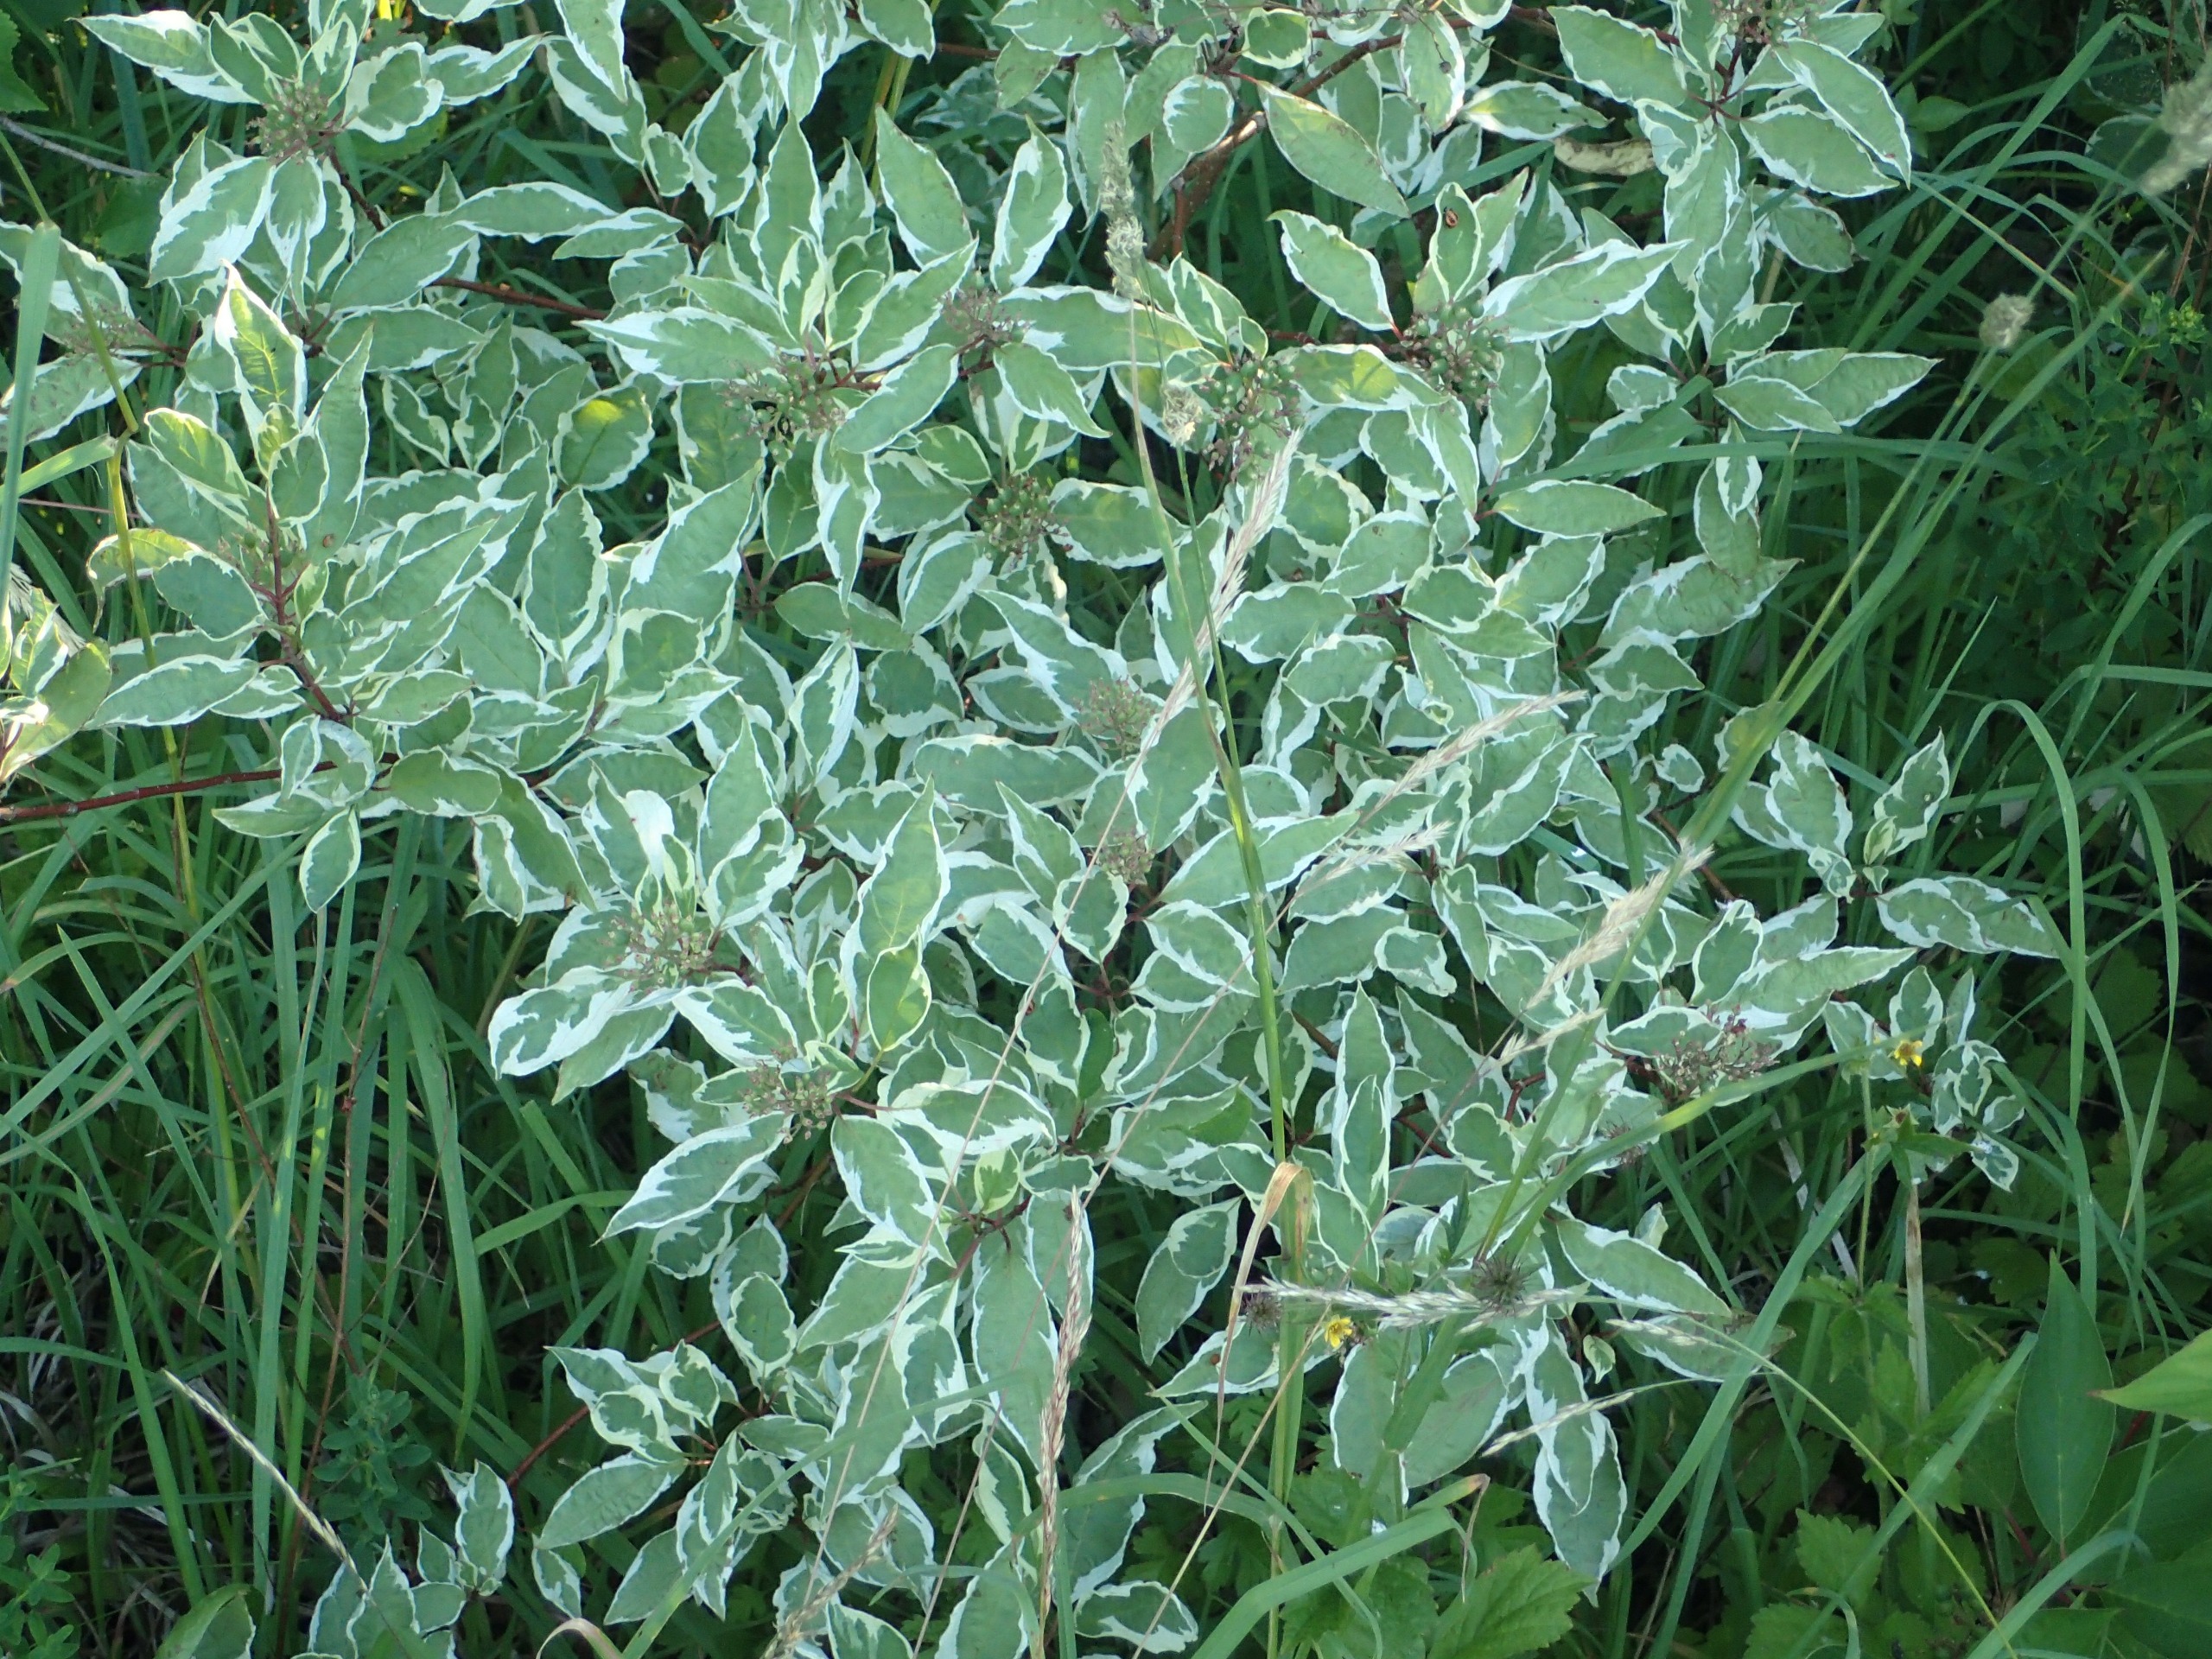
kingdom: Plantae
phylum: Tracheophyta
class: Magnoliopsida
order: Cornales
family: Cornaceae
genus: Cornus
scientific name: Cornus alba
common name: Hvid kornel
